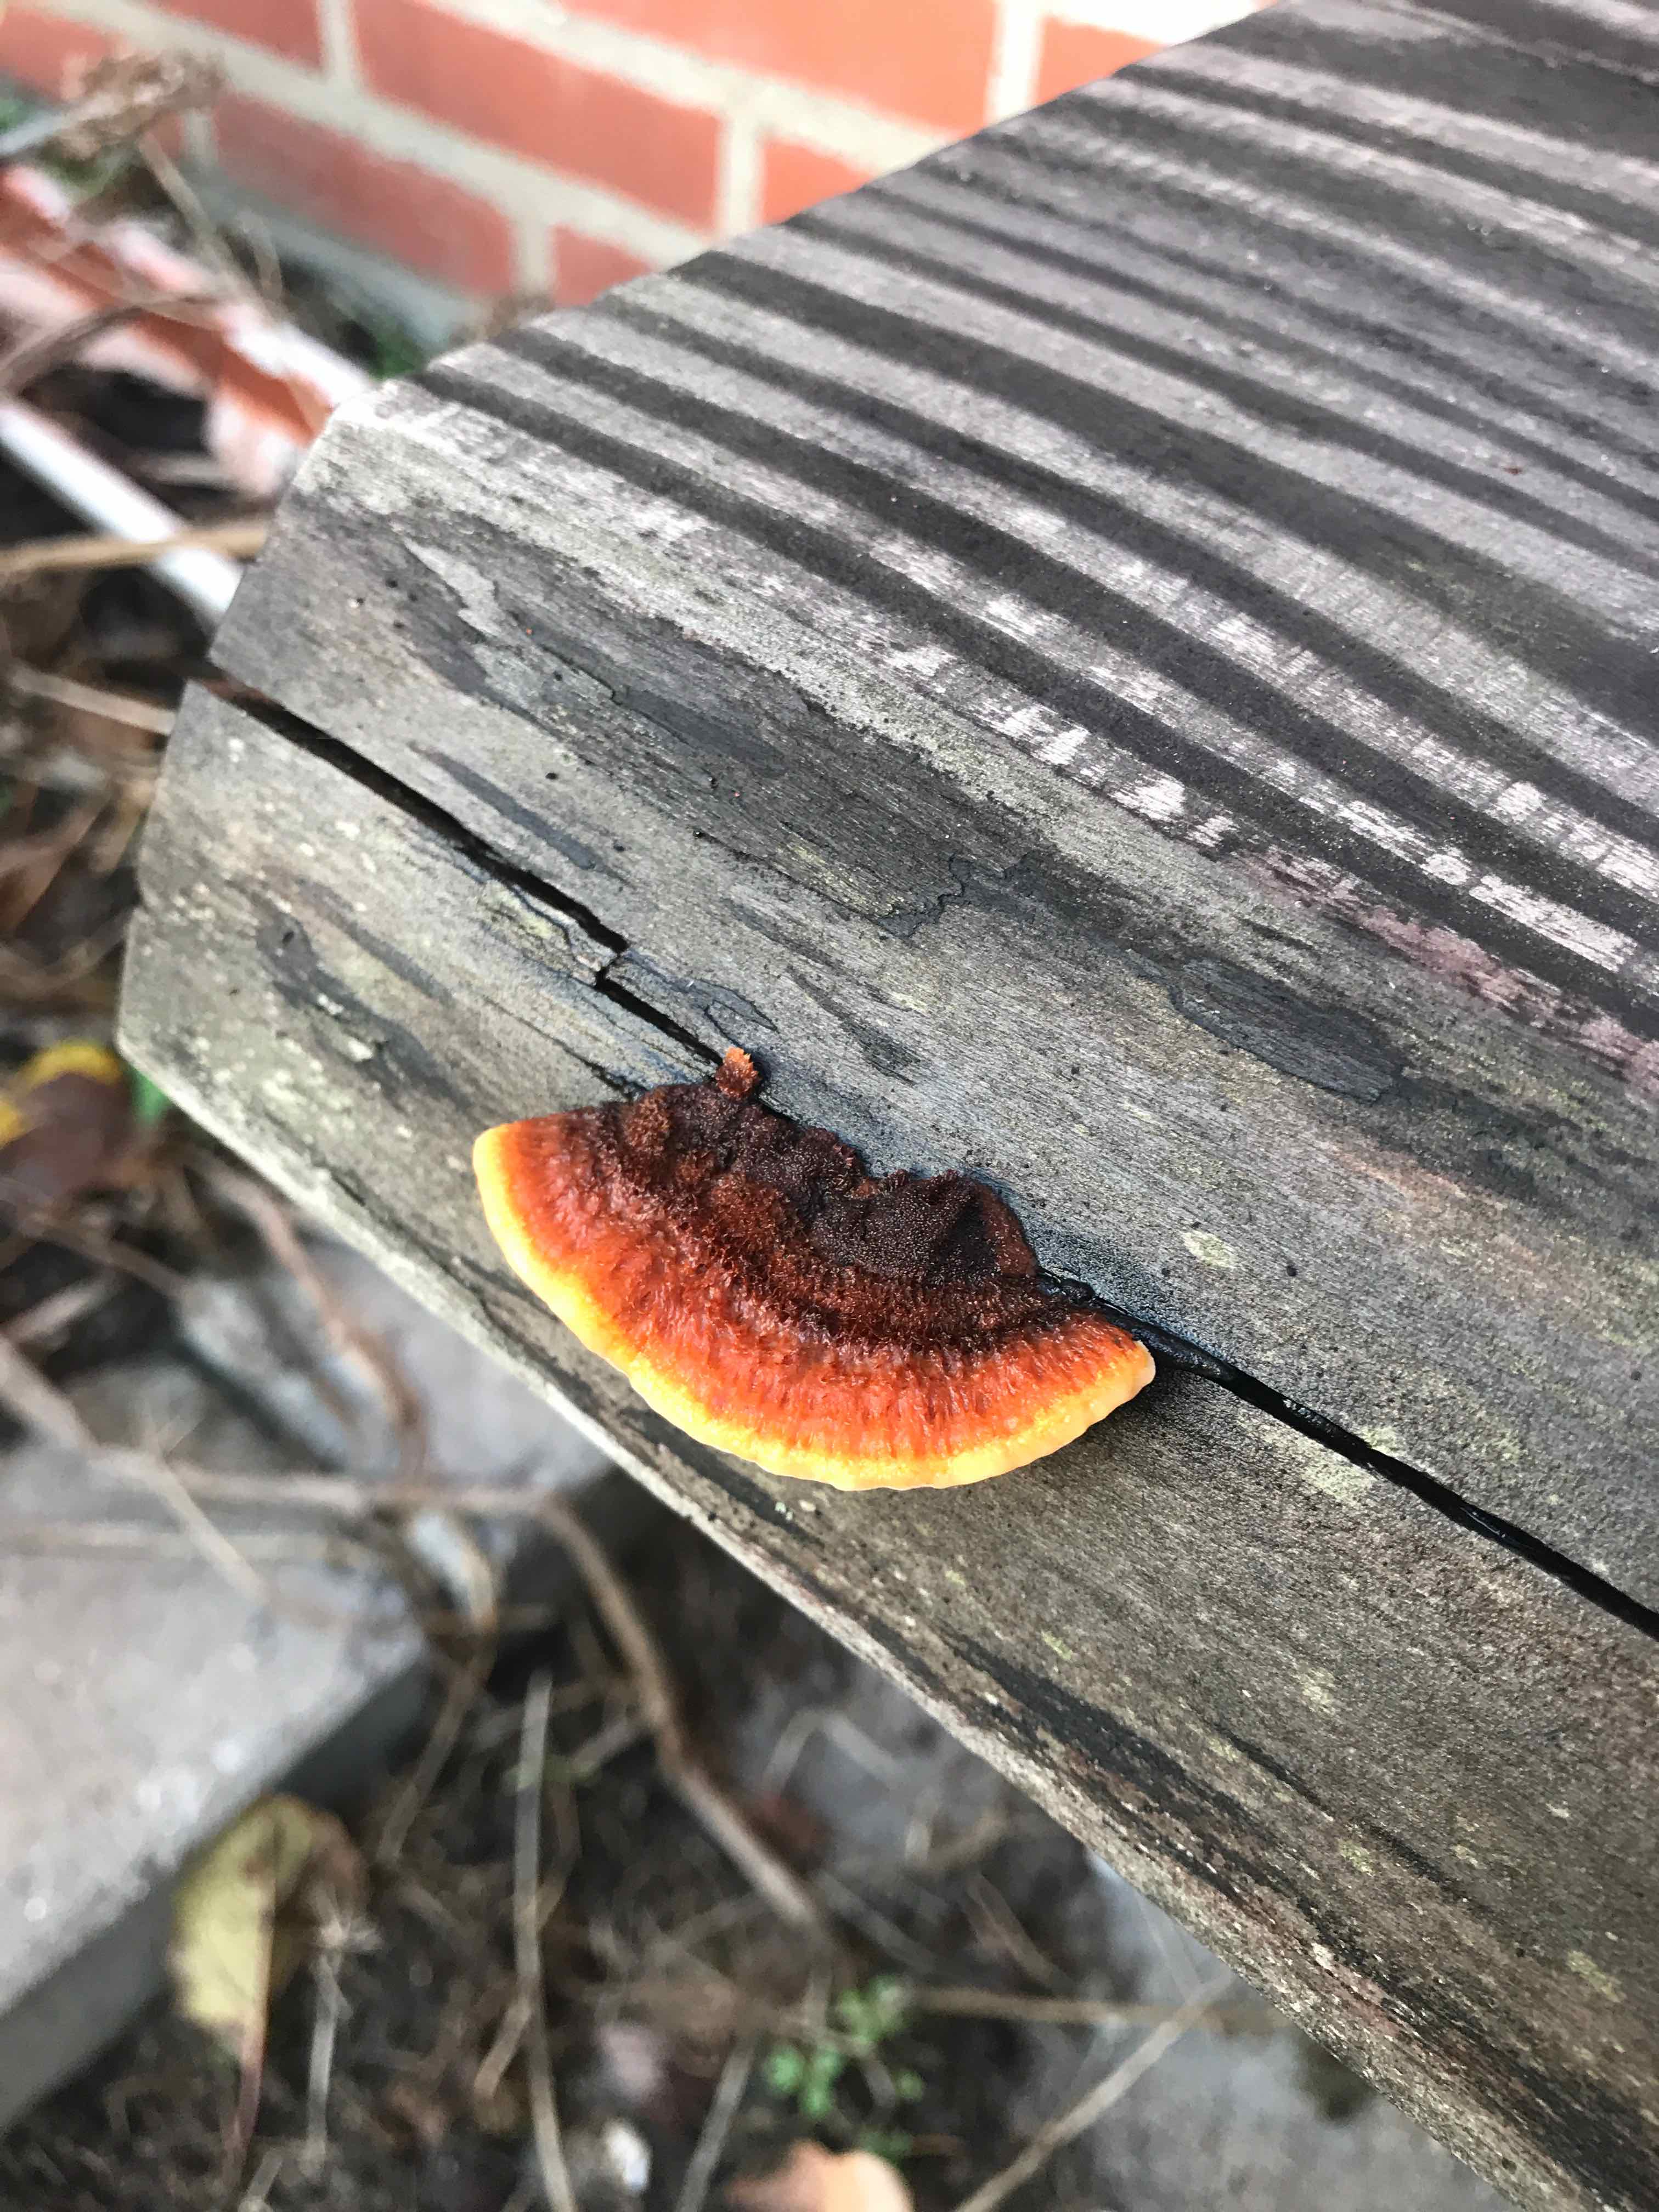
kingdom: Fungi
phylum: Basidiomycota
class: Agaricomycetes
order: Gloeophyllales
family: Gloeophyllaceae
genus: Gloeophyllum
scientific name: Gloeophyllum sepiarium
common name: fyrre-korkhat
